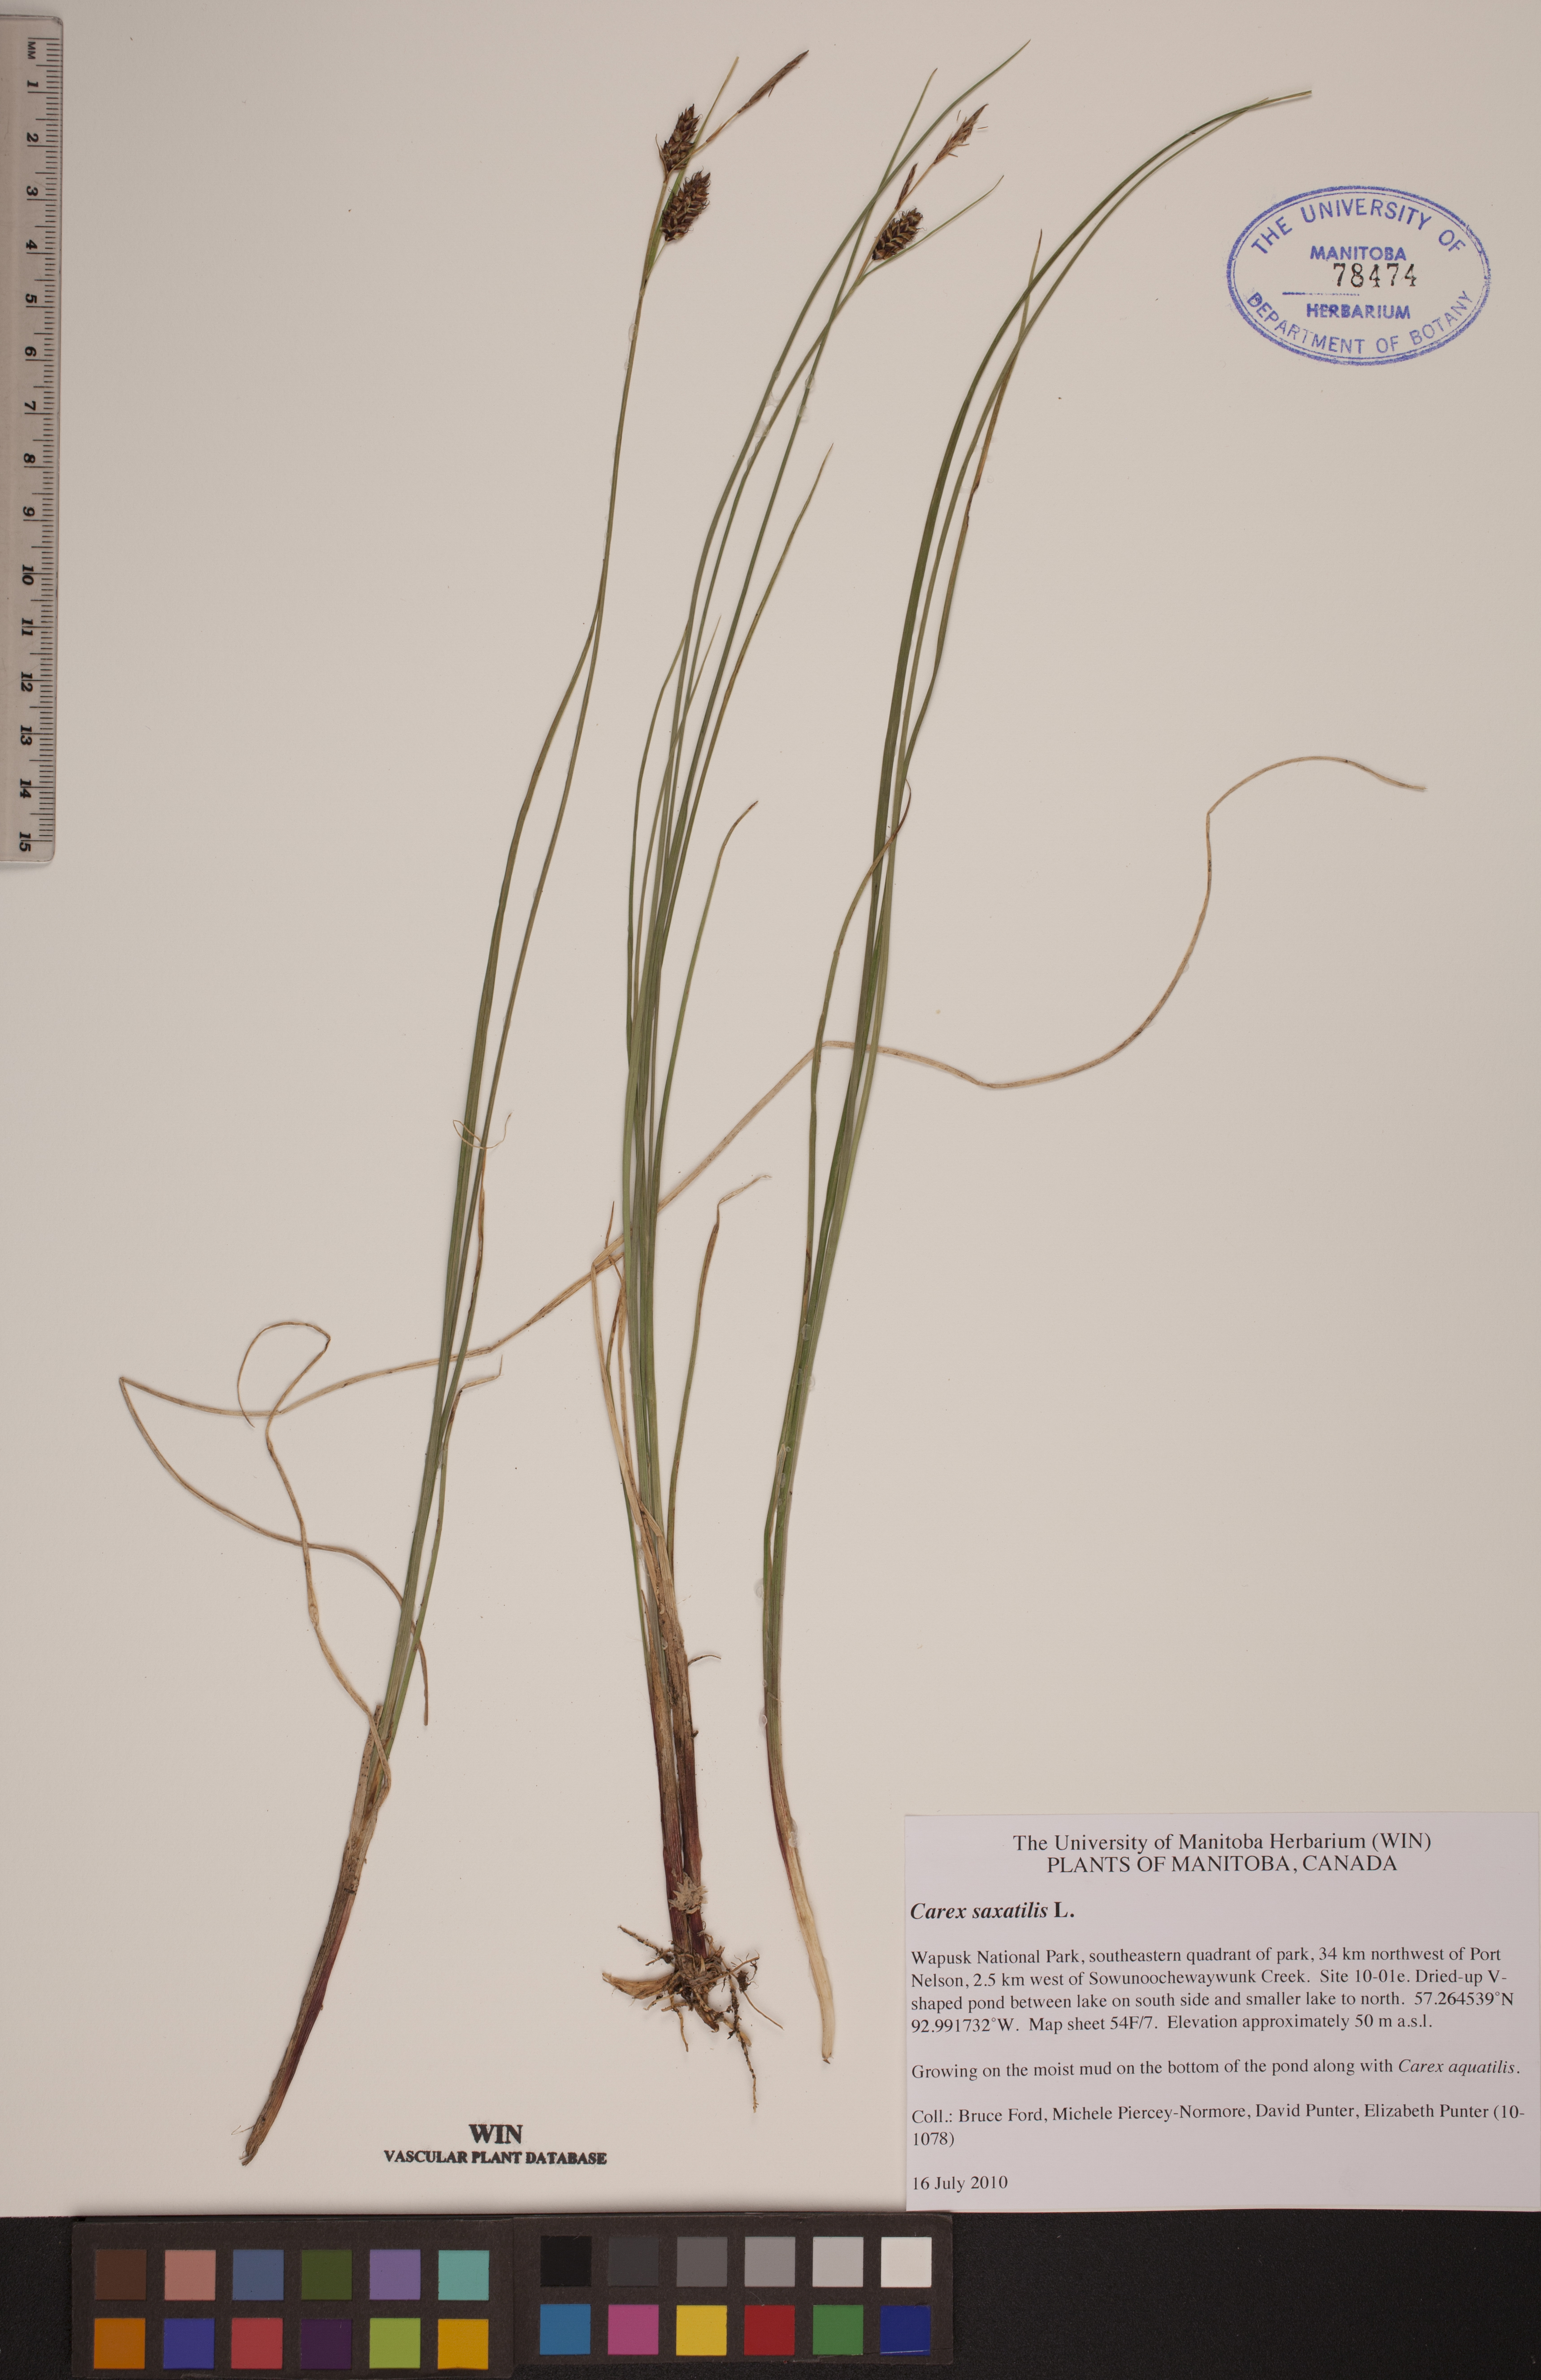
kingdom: Plantae
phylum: Tracheophyta
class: Liliopsida
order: Poales
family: Cyperaceae
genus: Carex
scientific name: Carex saxatilis
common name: Russet sedge
